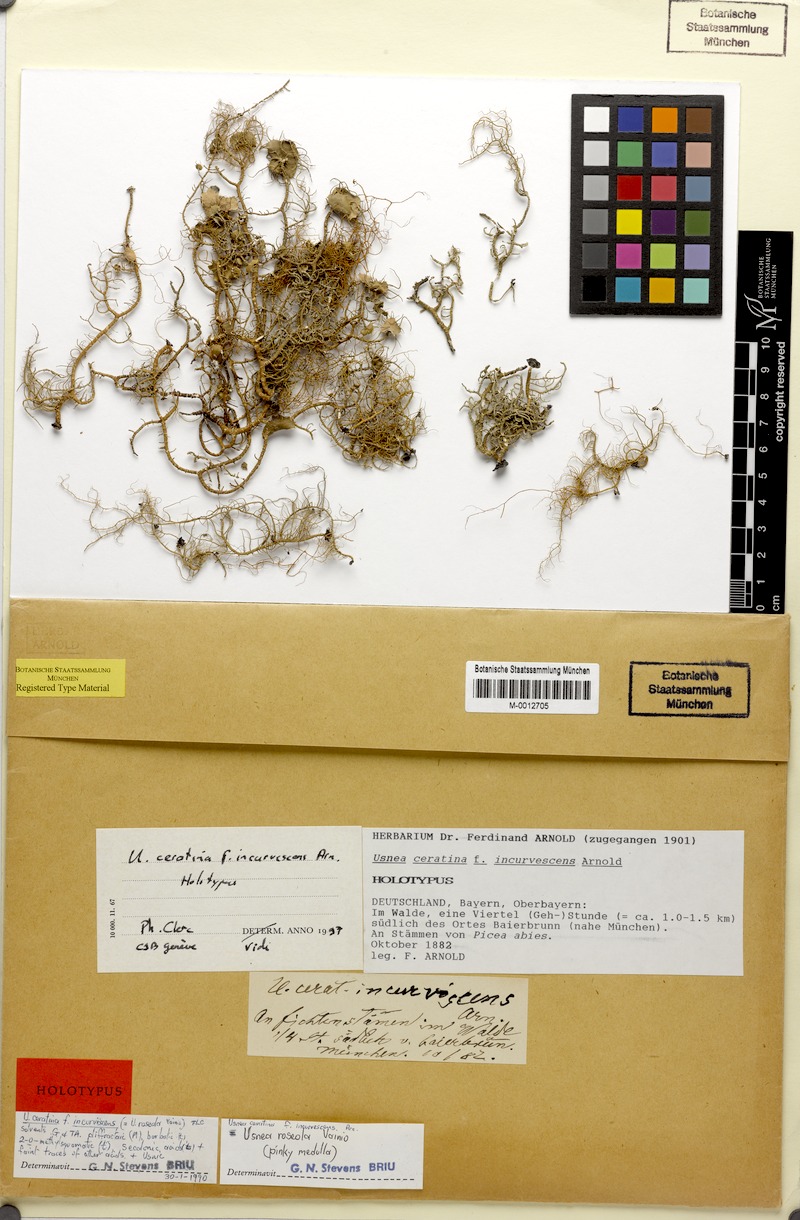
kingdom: Fungi
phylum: Ascomycota
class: Lecanoromycetes
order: Lecanorales
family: Parmeliaceae
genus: Usnea
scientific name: Usnea ceratina
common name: Warty beard lichen
